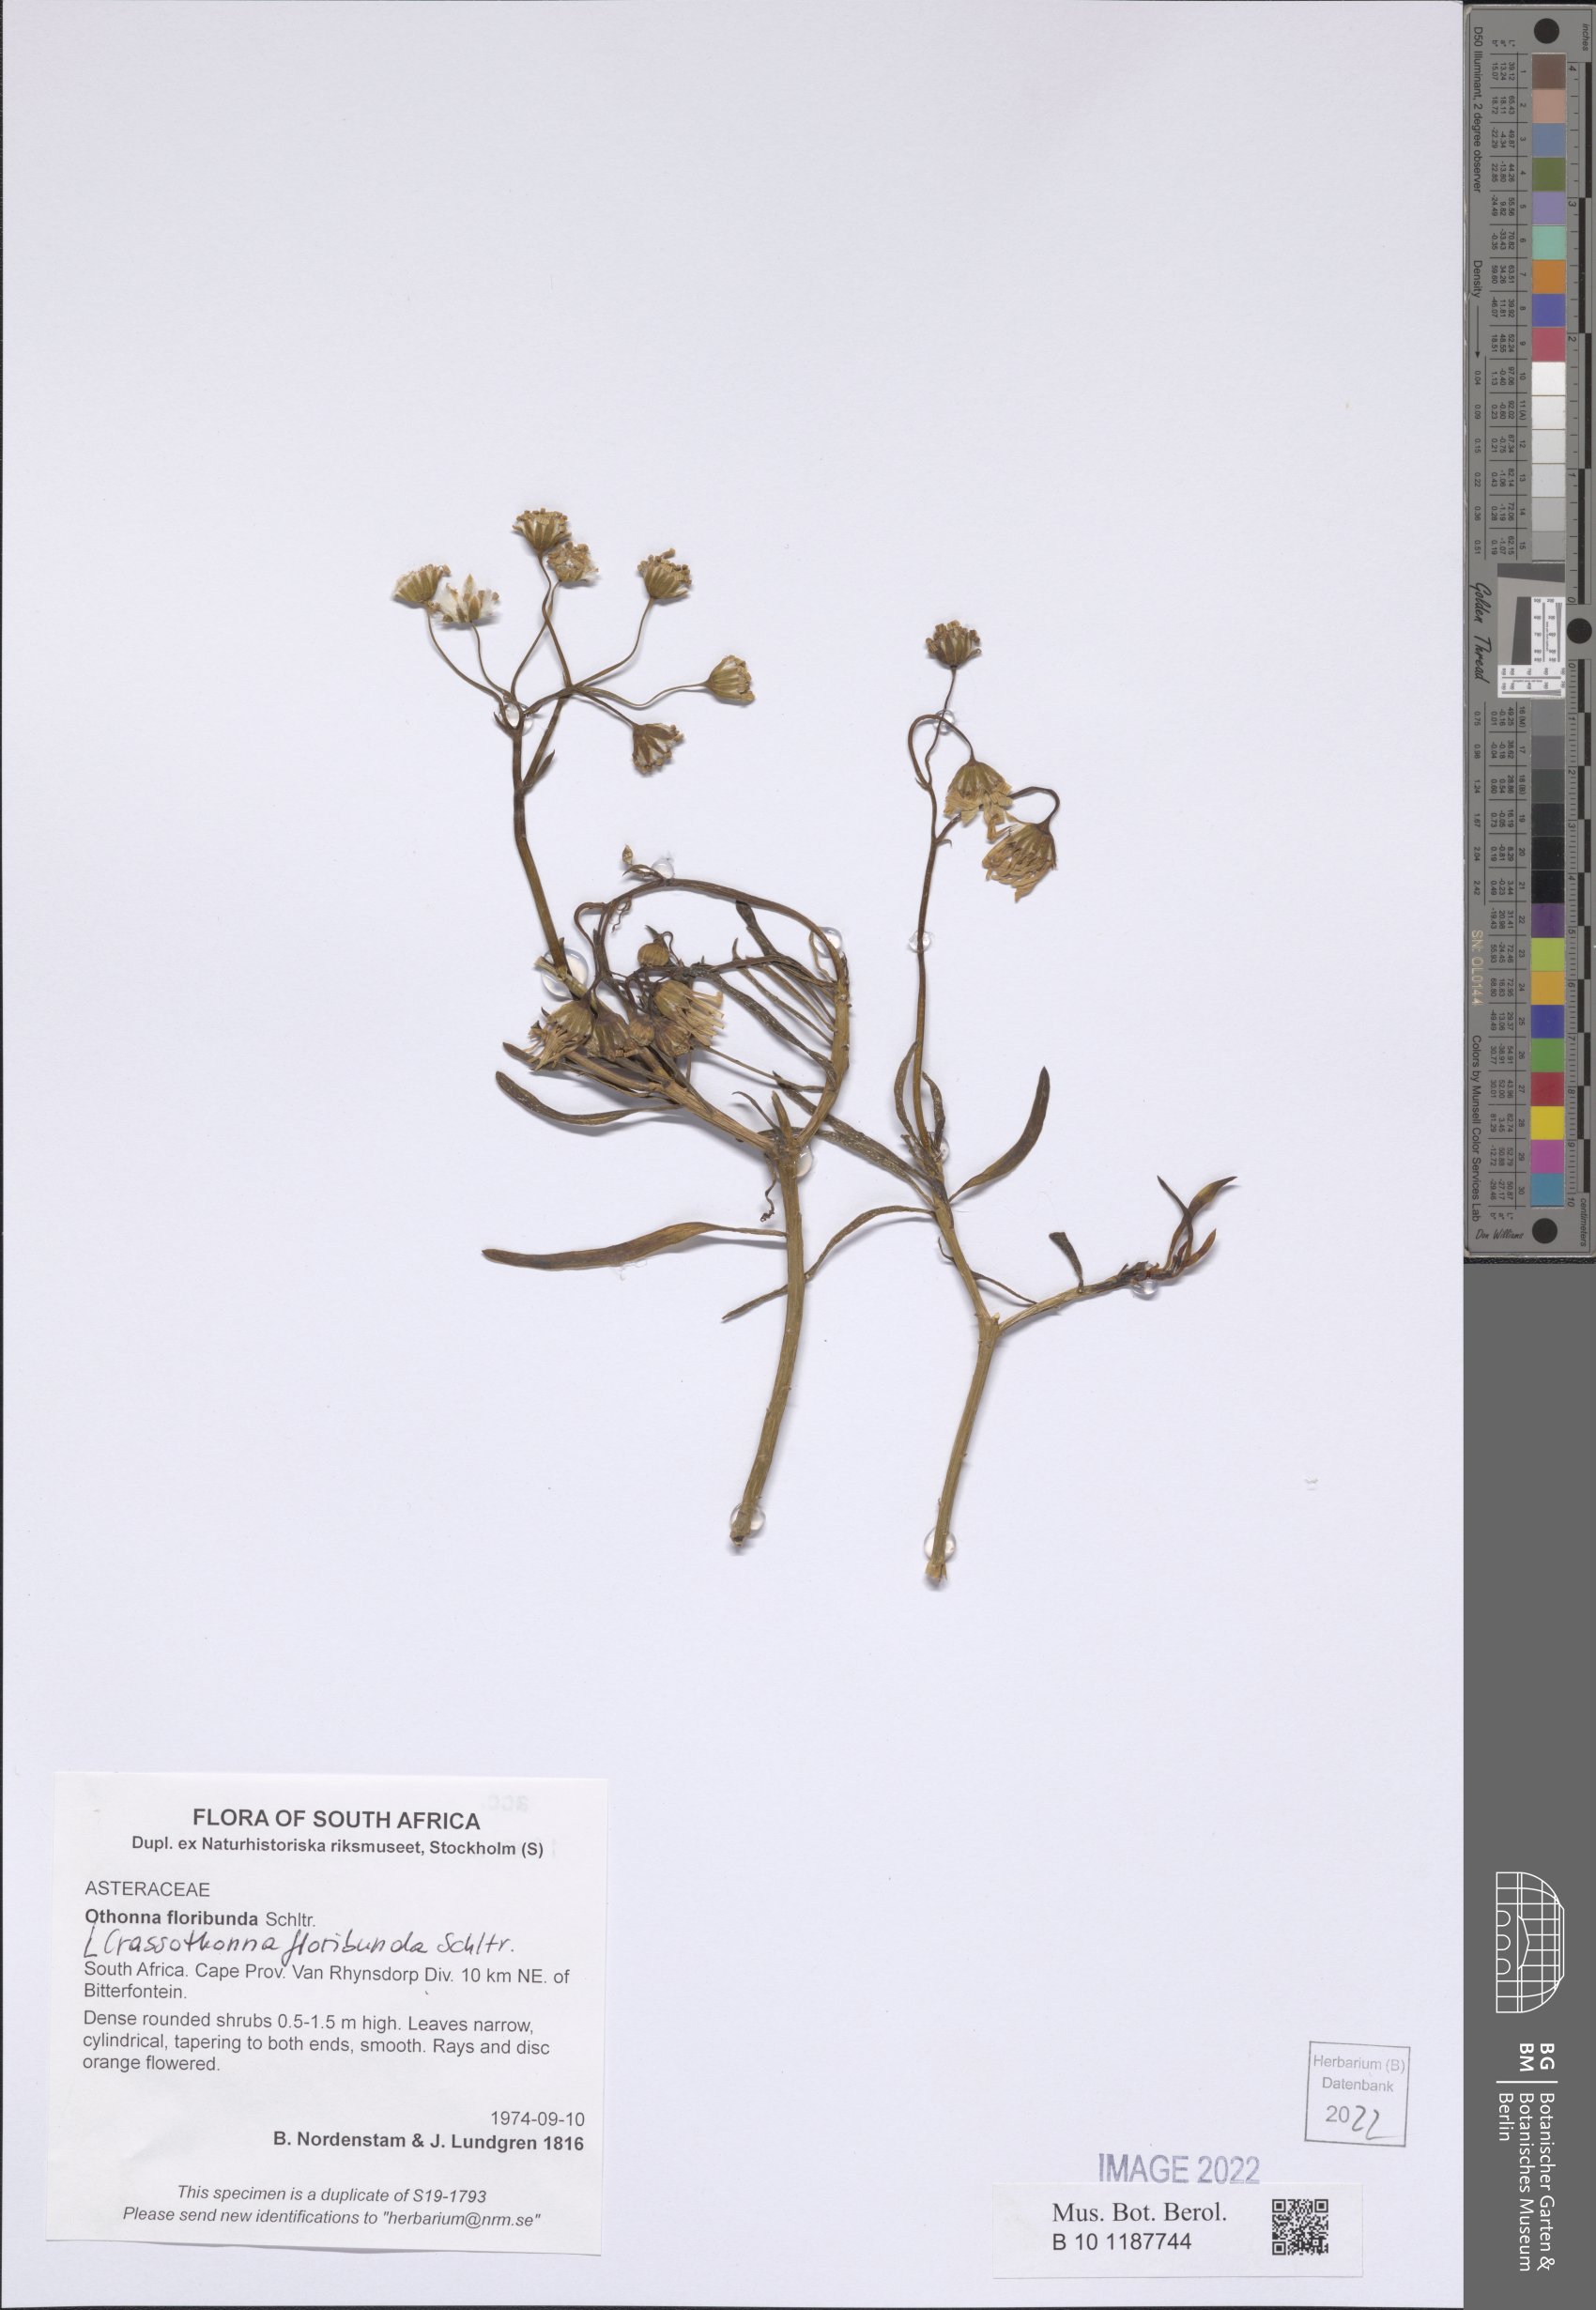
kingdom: Plantae
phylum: Tracheophyta
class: Magnoliopsida
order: Asterales
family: Asteraceae
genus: Crassothonna
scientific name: Crassothonna floribunda
